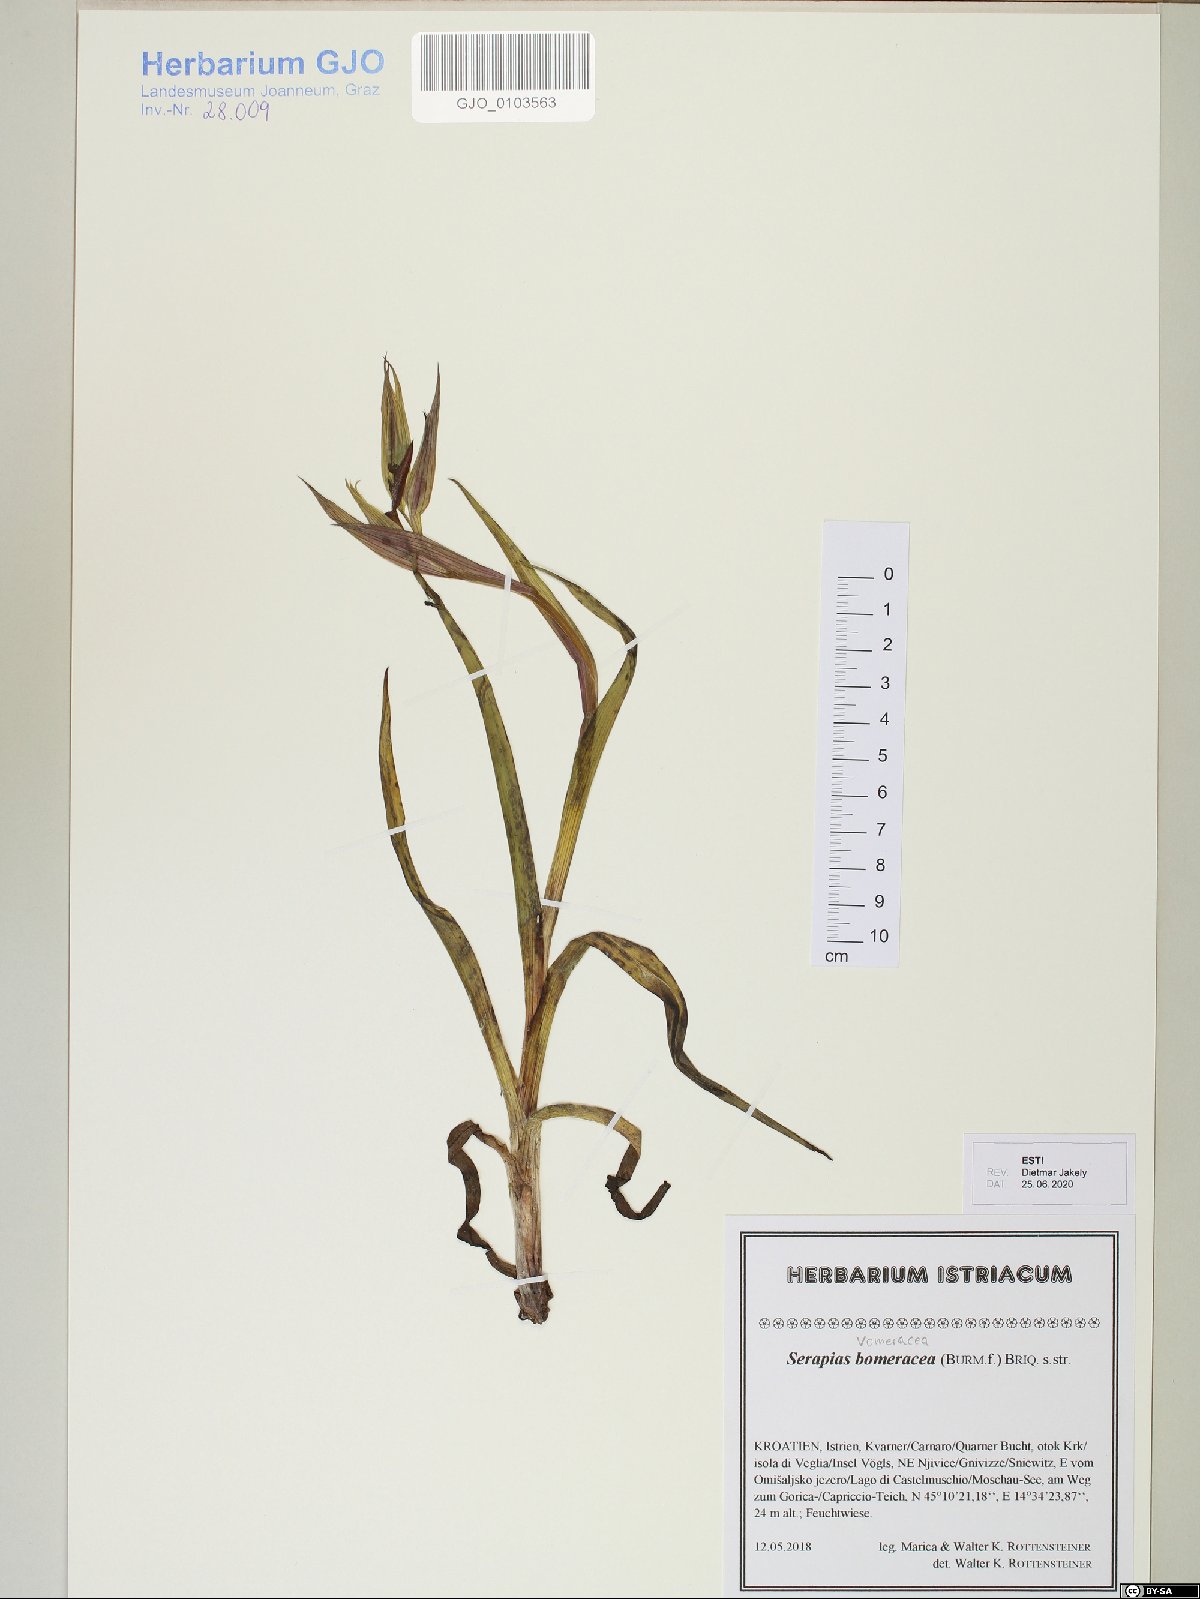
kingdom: Plantae
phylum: Tracheophyta
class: Liliopsida
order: Asparagales
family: Orchidaceae
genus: Serapias
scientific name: Serapias vomeracea
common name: Long-lipped tongue-orchid
